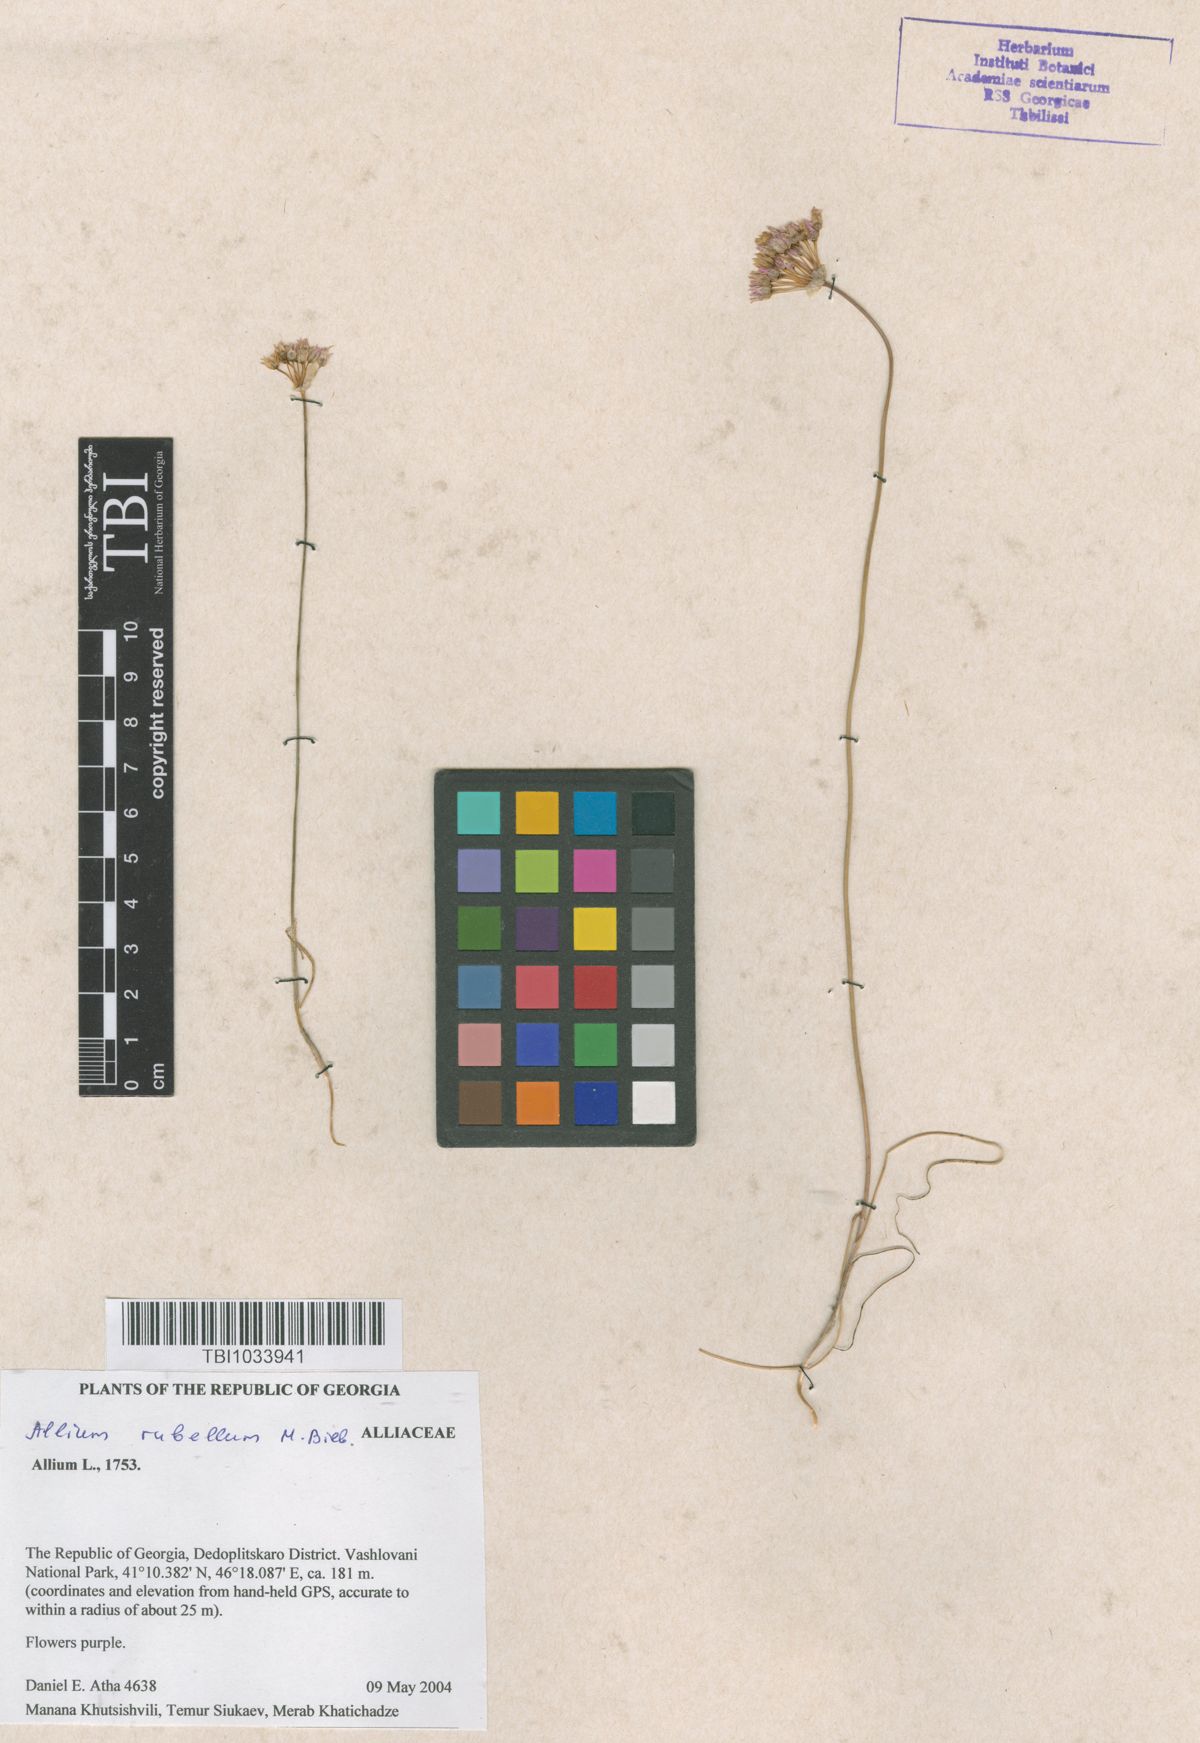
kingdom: Plantae
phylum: Tracheophyta
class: Liliopsida
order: Asparagales
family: Amaryllidaceae
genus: Allium
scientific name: Allium rubellum
